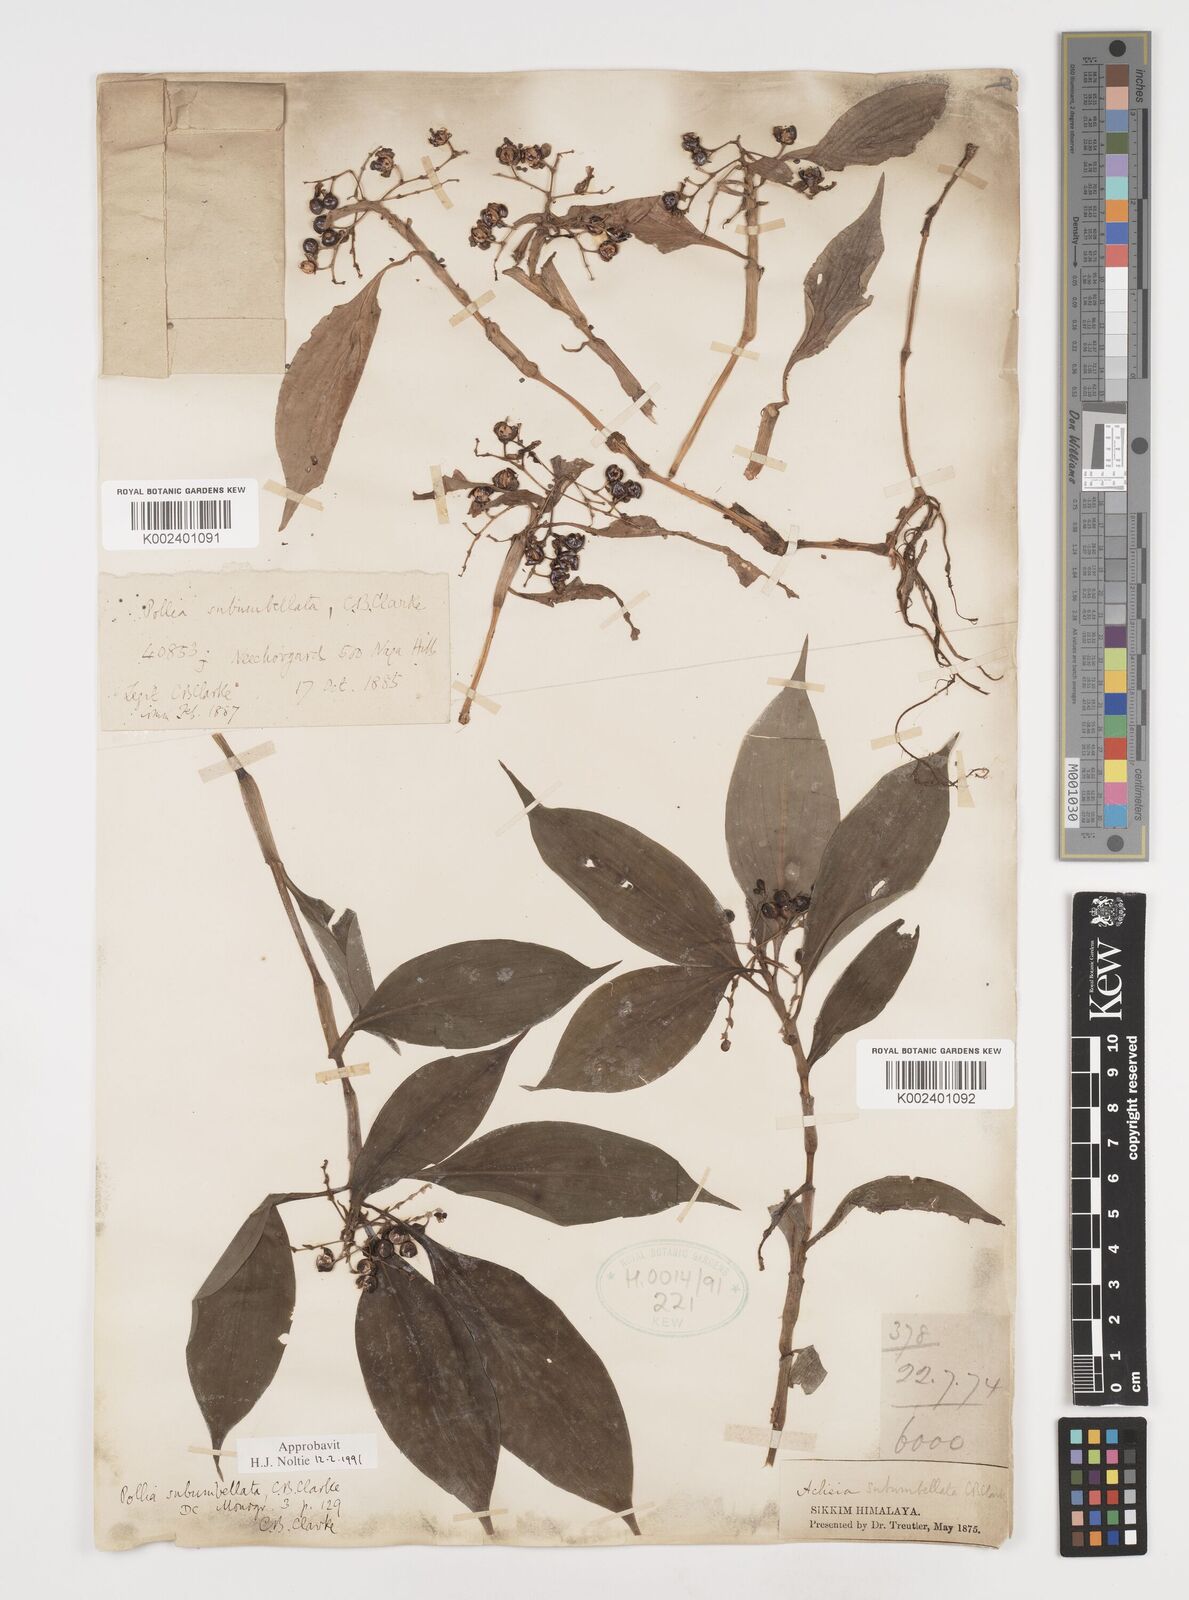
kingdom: Plantae
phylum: Tracheophyta
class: Liliopsida
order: Commelinales
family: Commelinaceae
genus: Pollia
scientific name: Pollia subumbellata
